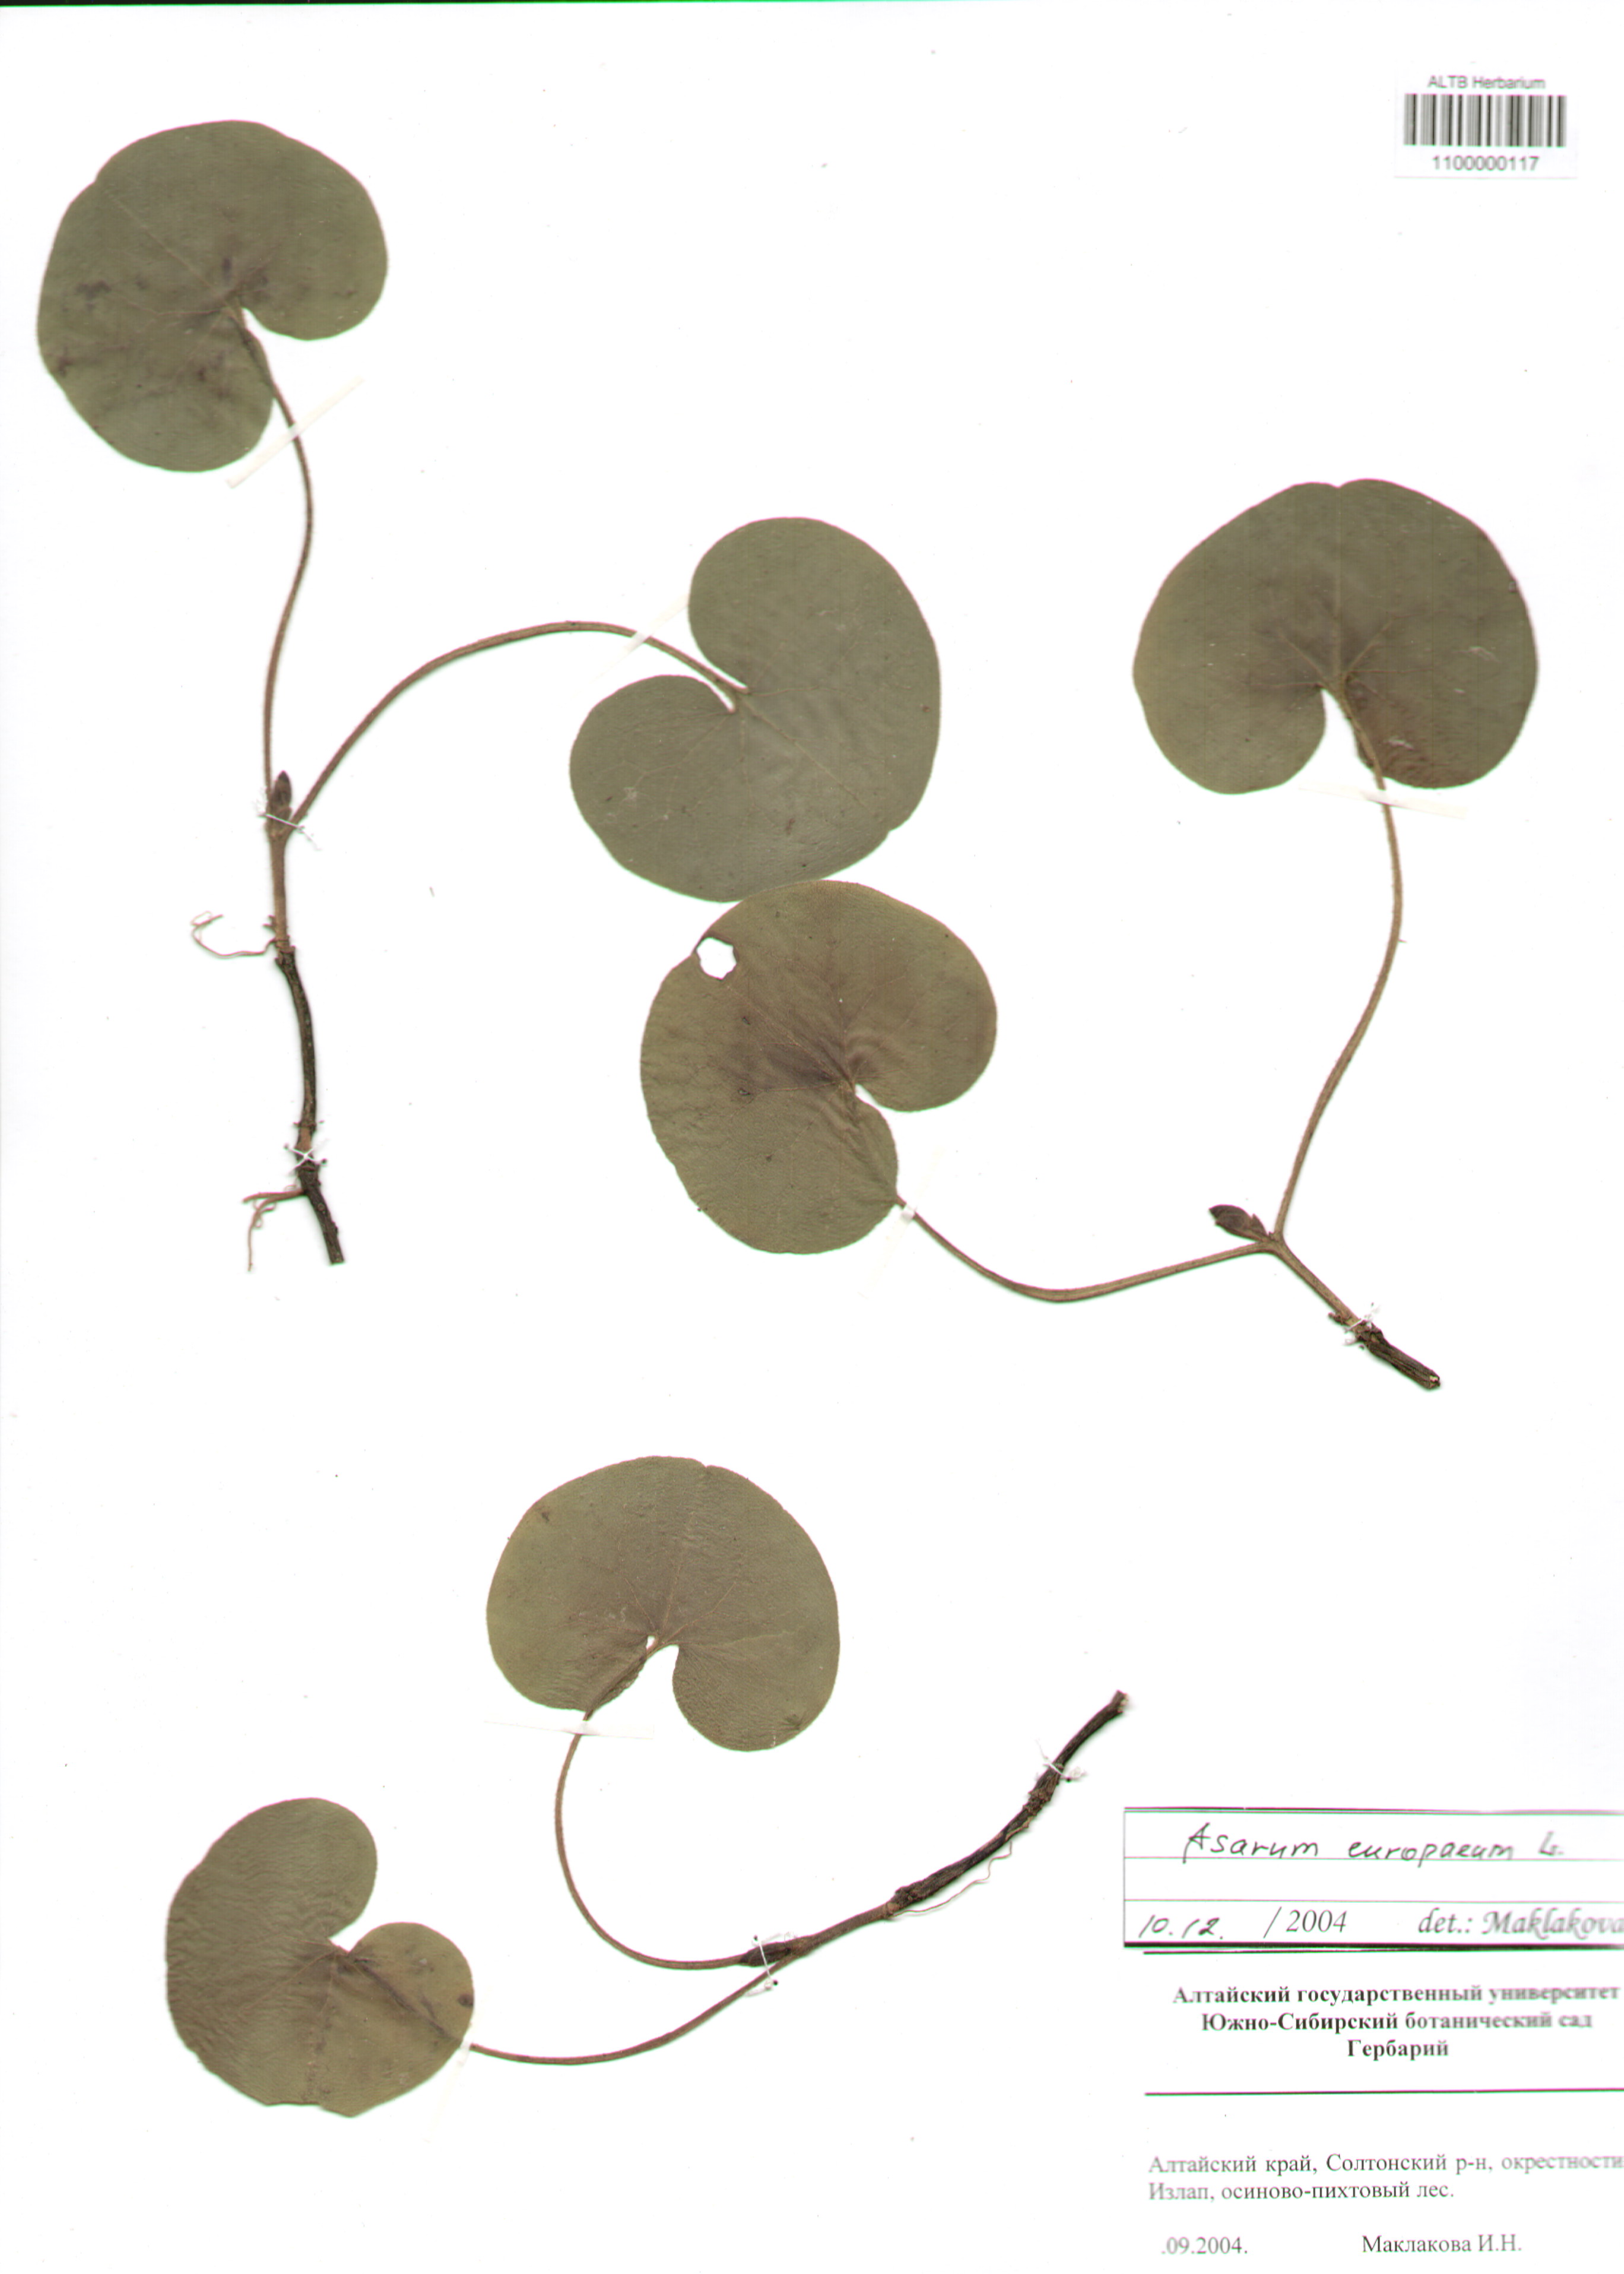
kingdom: Plantae
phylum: Tracheophyta
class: Magnoliopsida
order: Piperales
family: Aristolochiaceae
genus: Asarum
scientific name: Asarum europaeum
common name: Asarabacca
